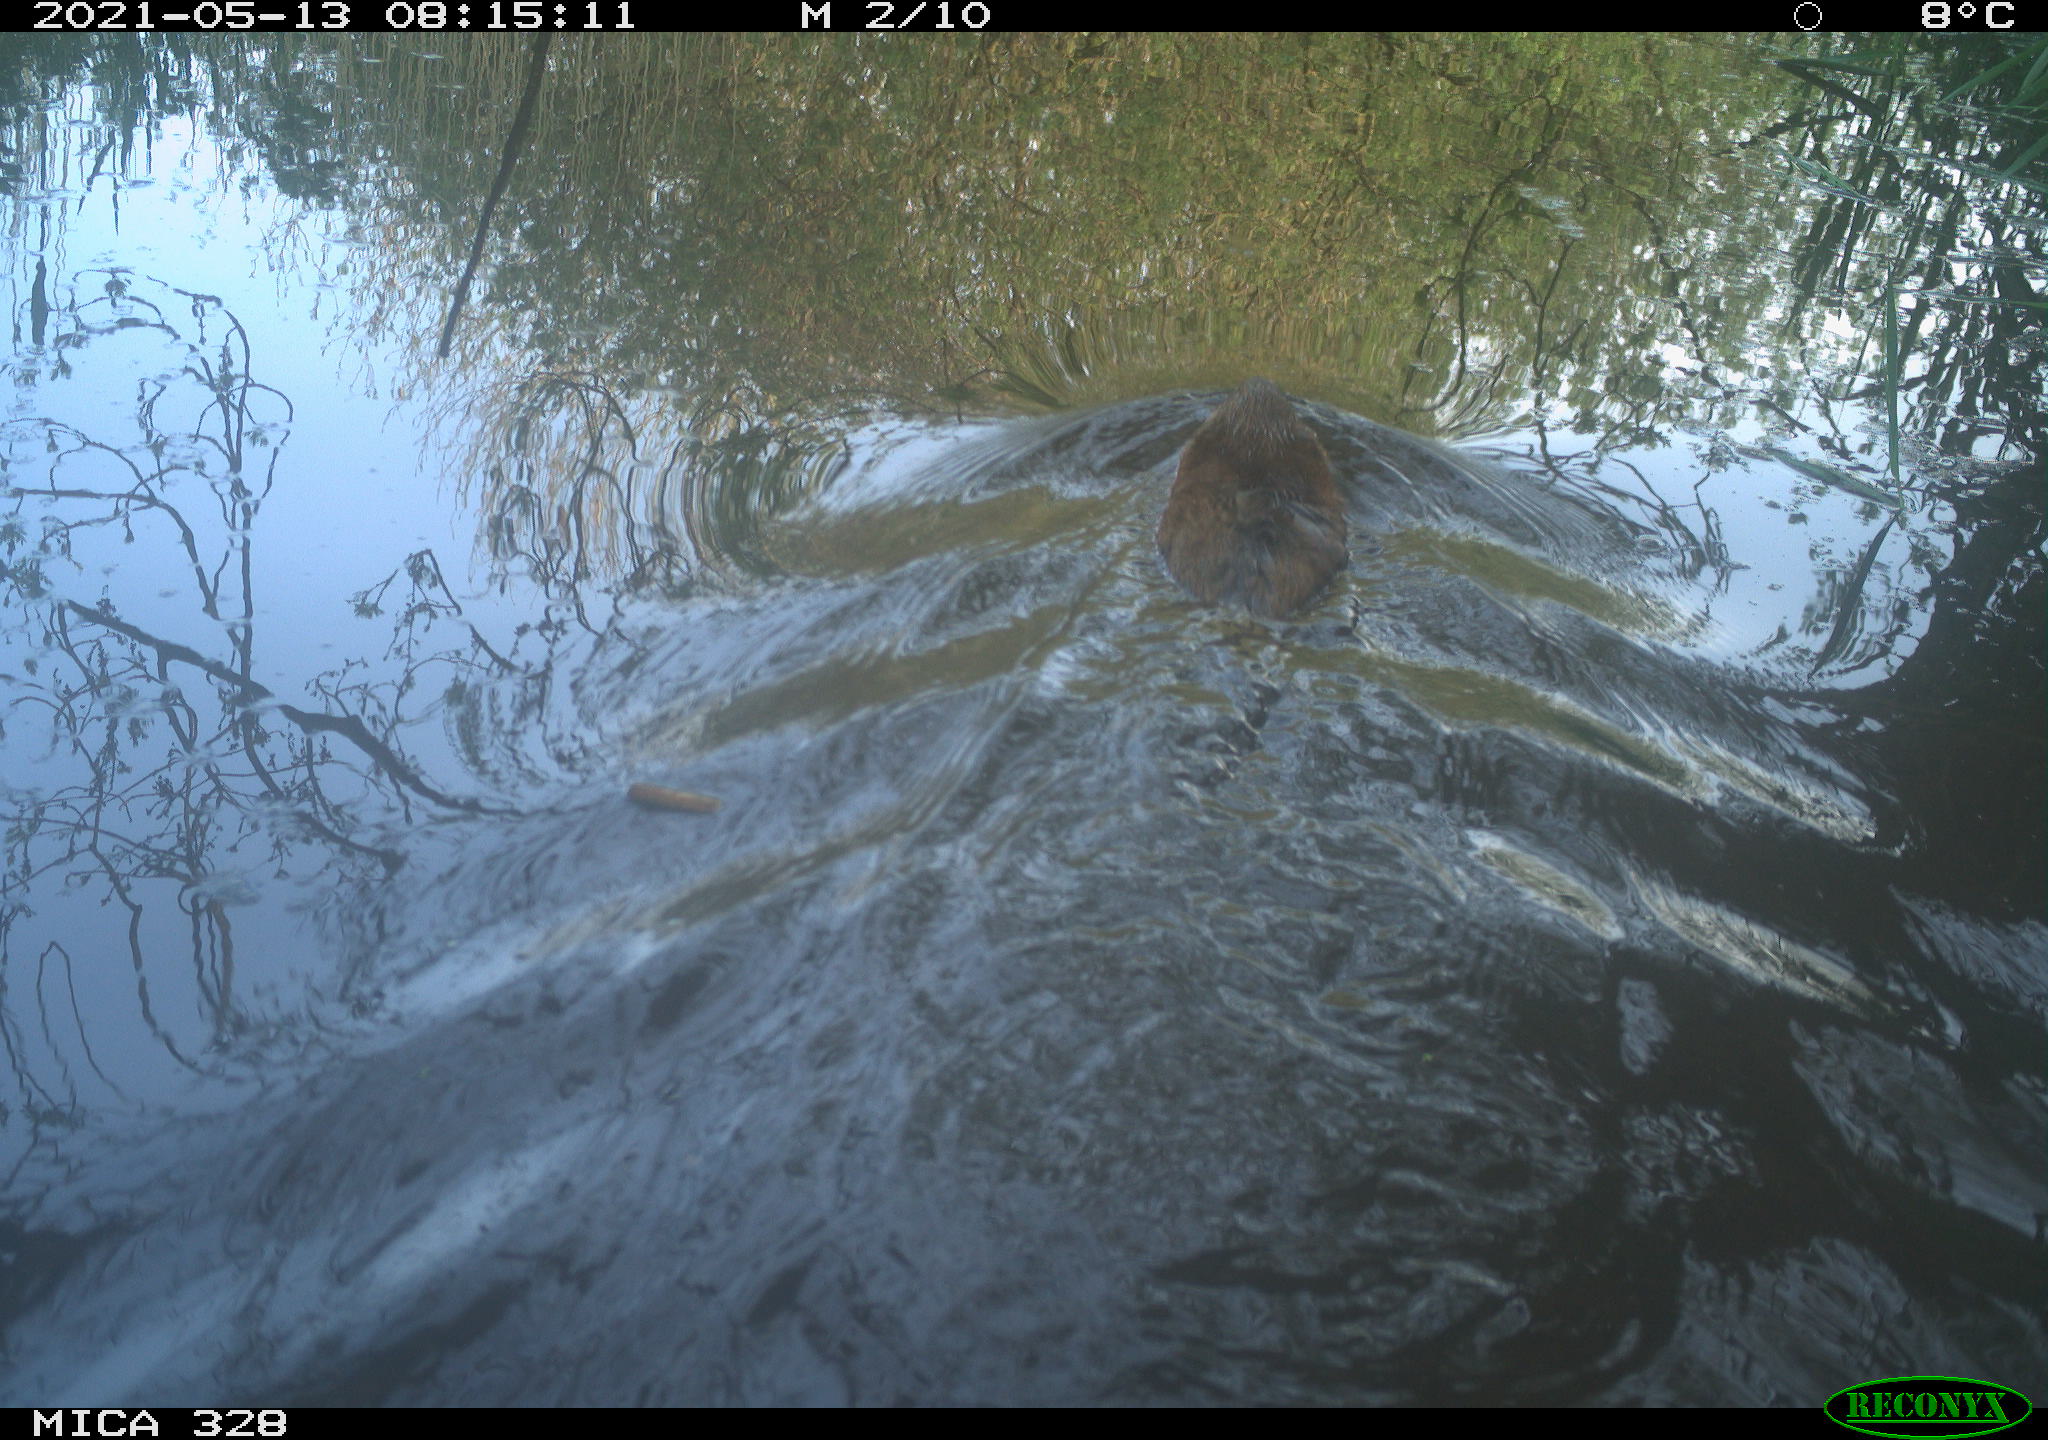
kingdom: Animalia
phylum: Chordata
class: Mammalia
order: Rodentia
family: Cricetidae
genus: Ondatra
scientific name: Ondatra zibethicus
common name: Muskrat
